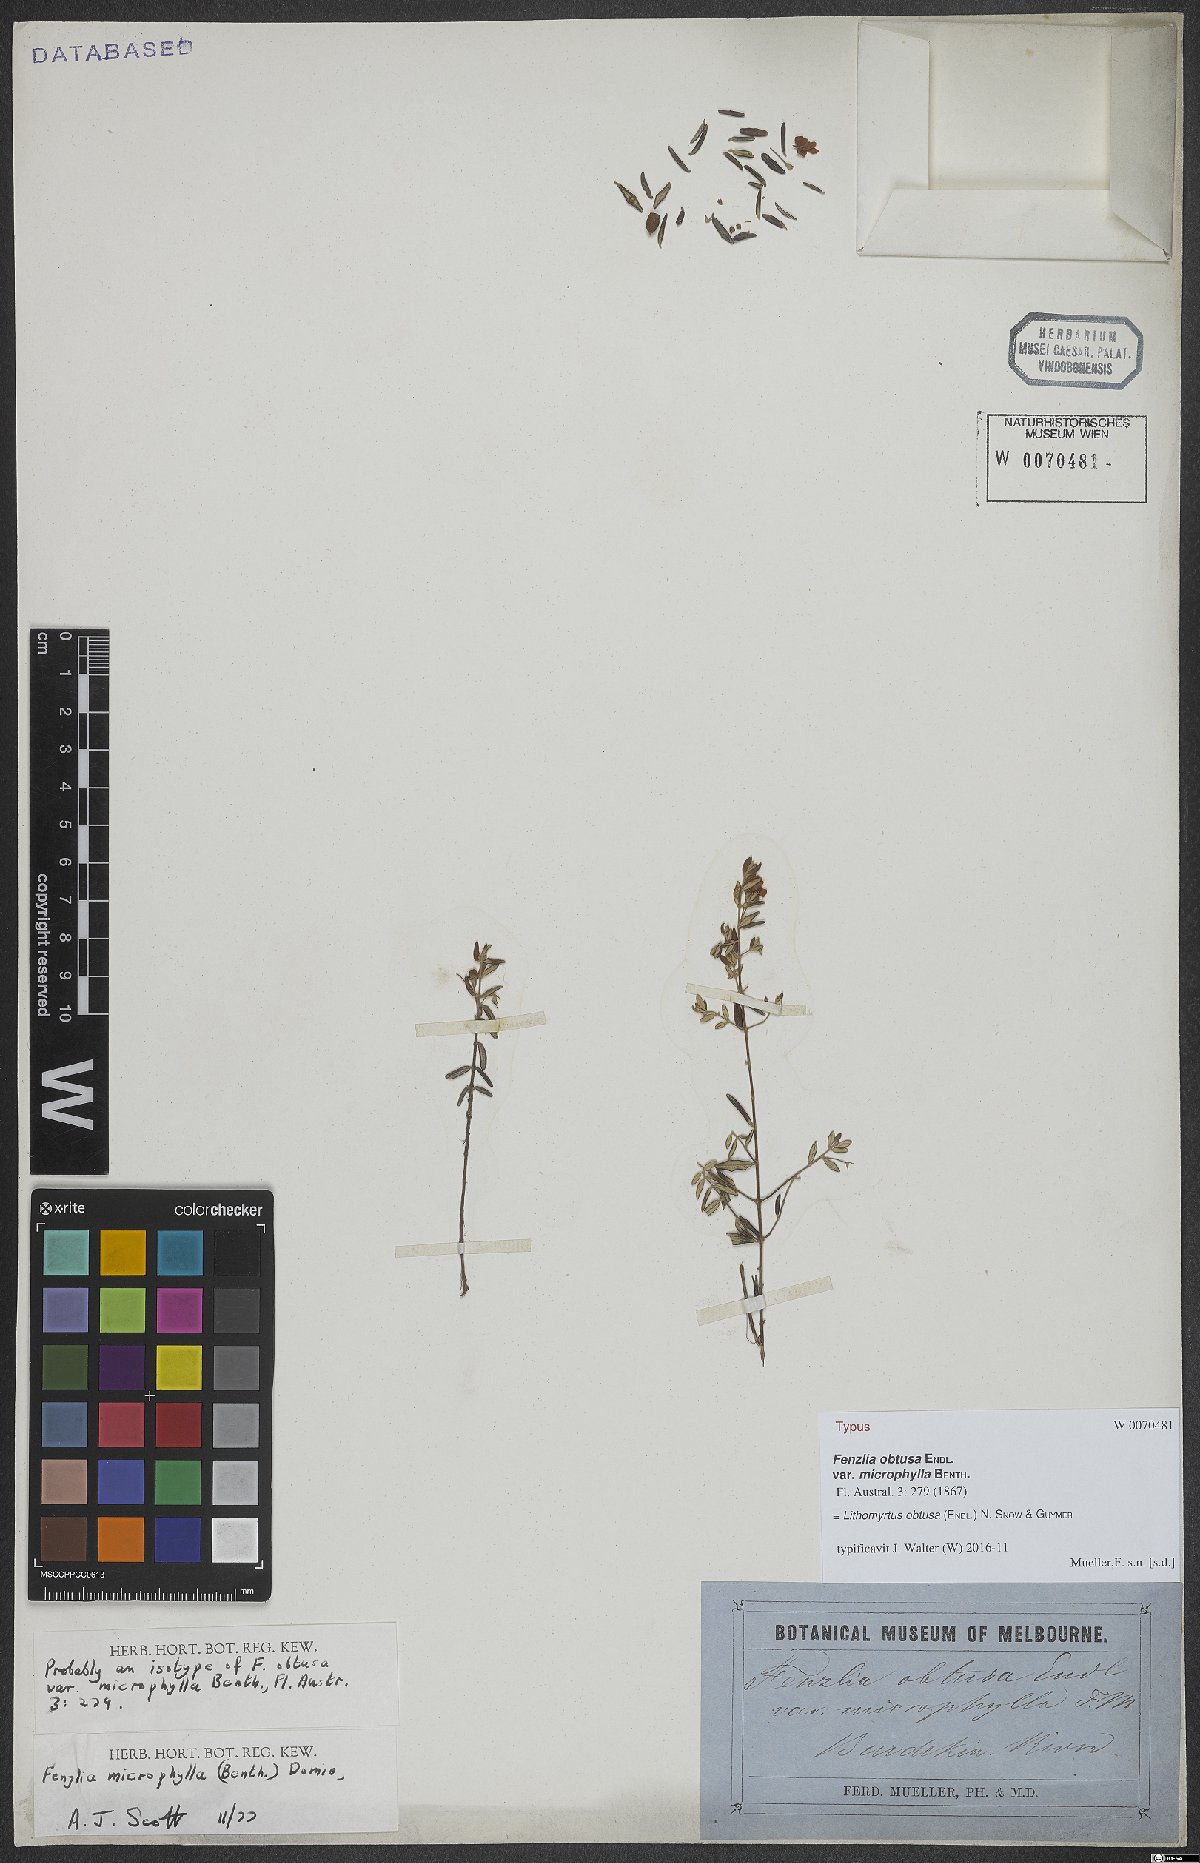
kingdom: Plantae
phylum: Tracheophyta
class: Magnoliopsida
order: Myrtales
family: Myrtaceae
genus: Lithomyrtus
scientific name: Lithomyrtus obtusa
